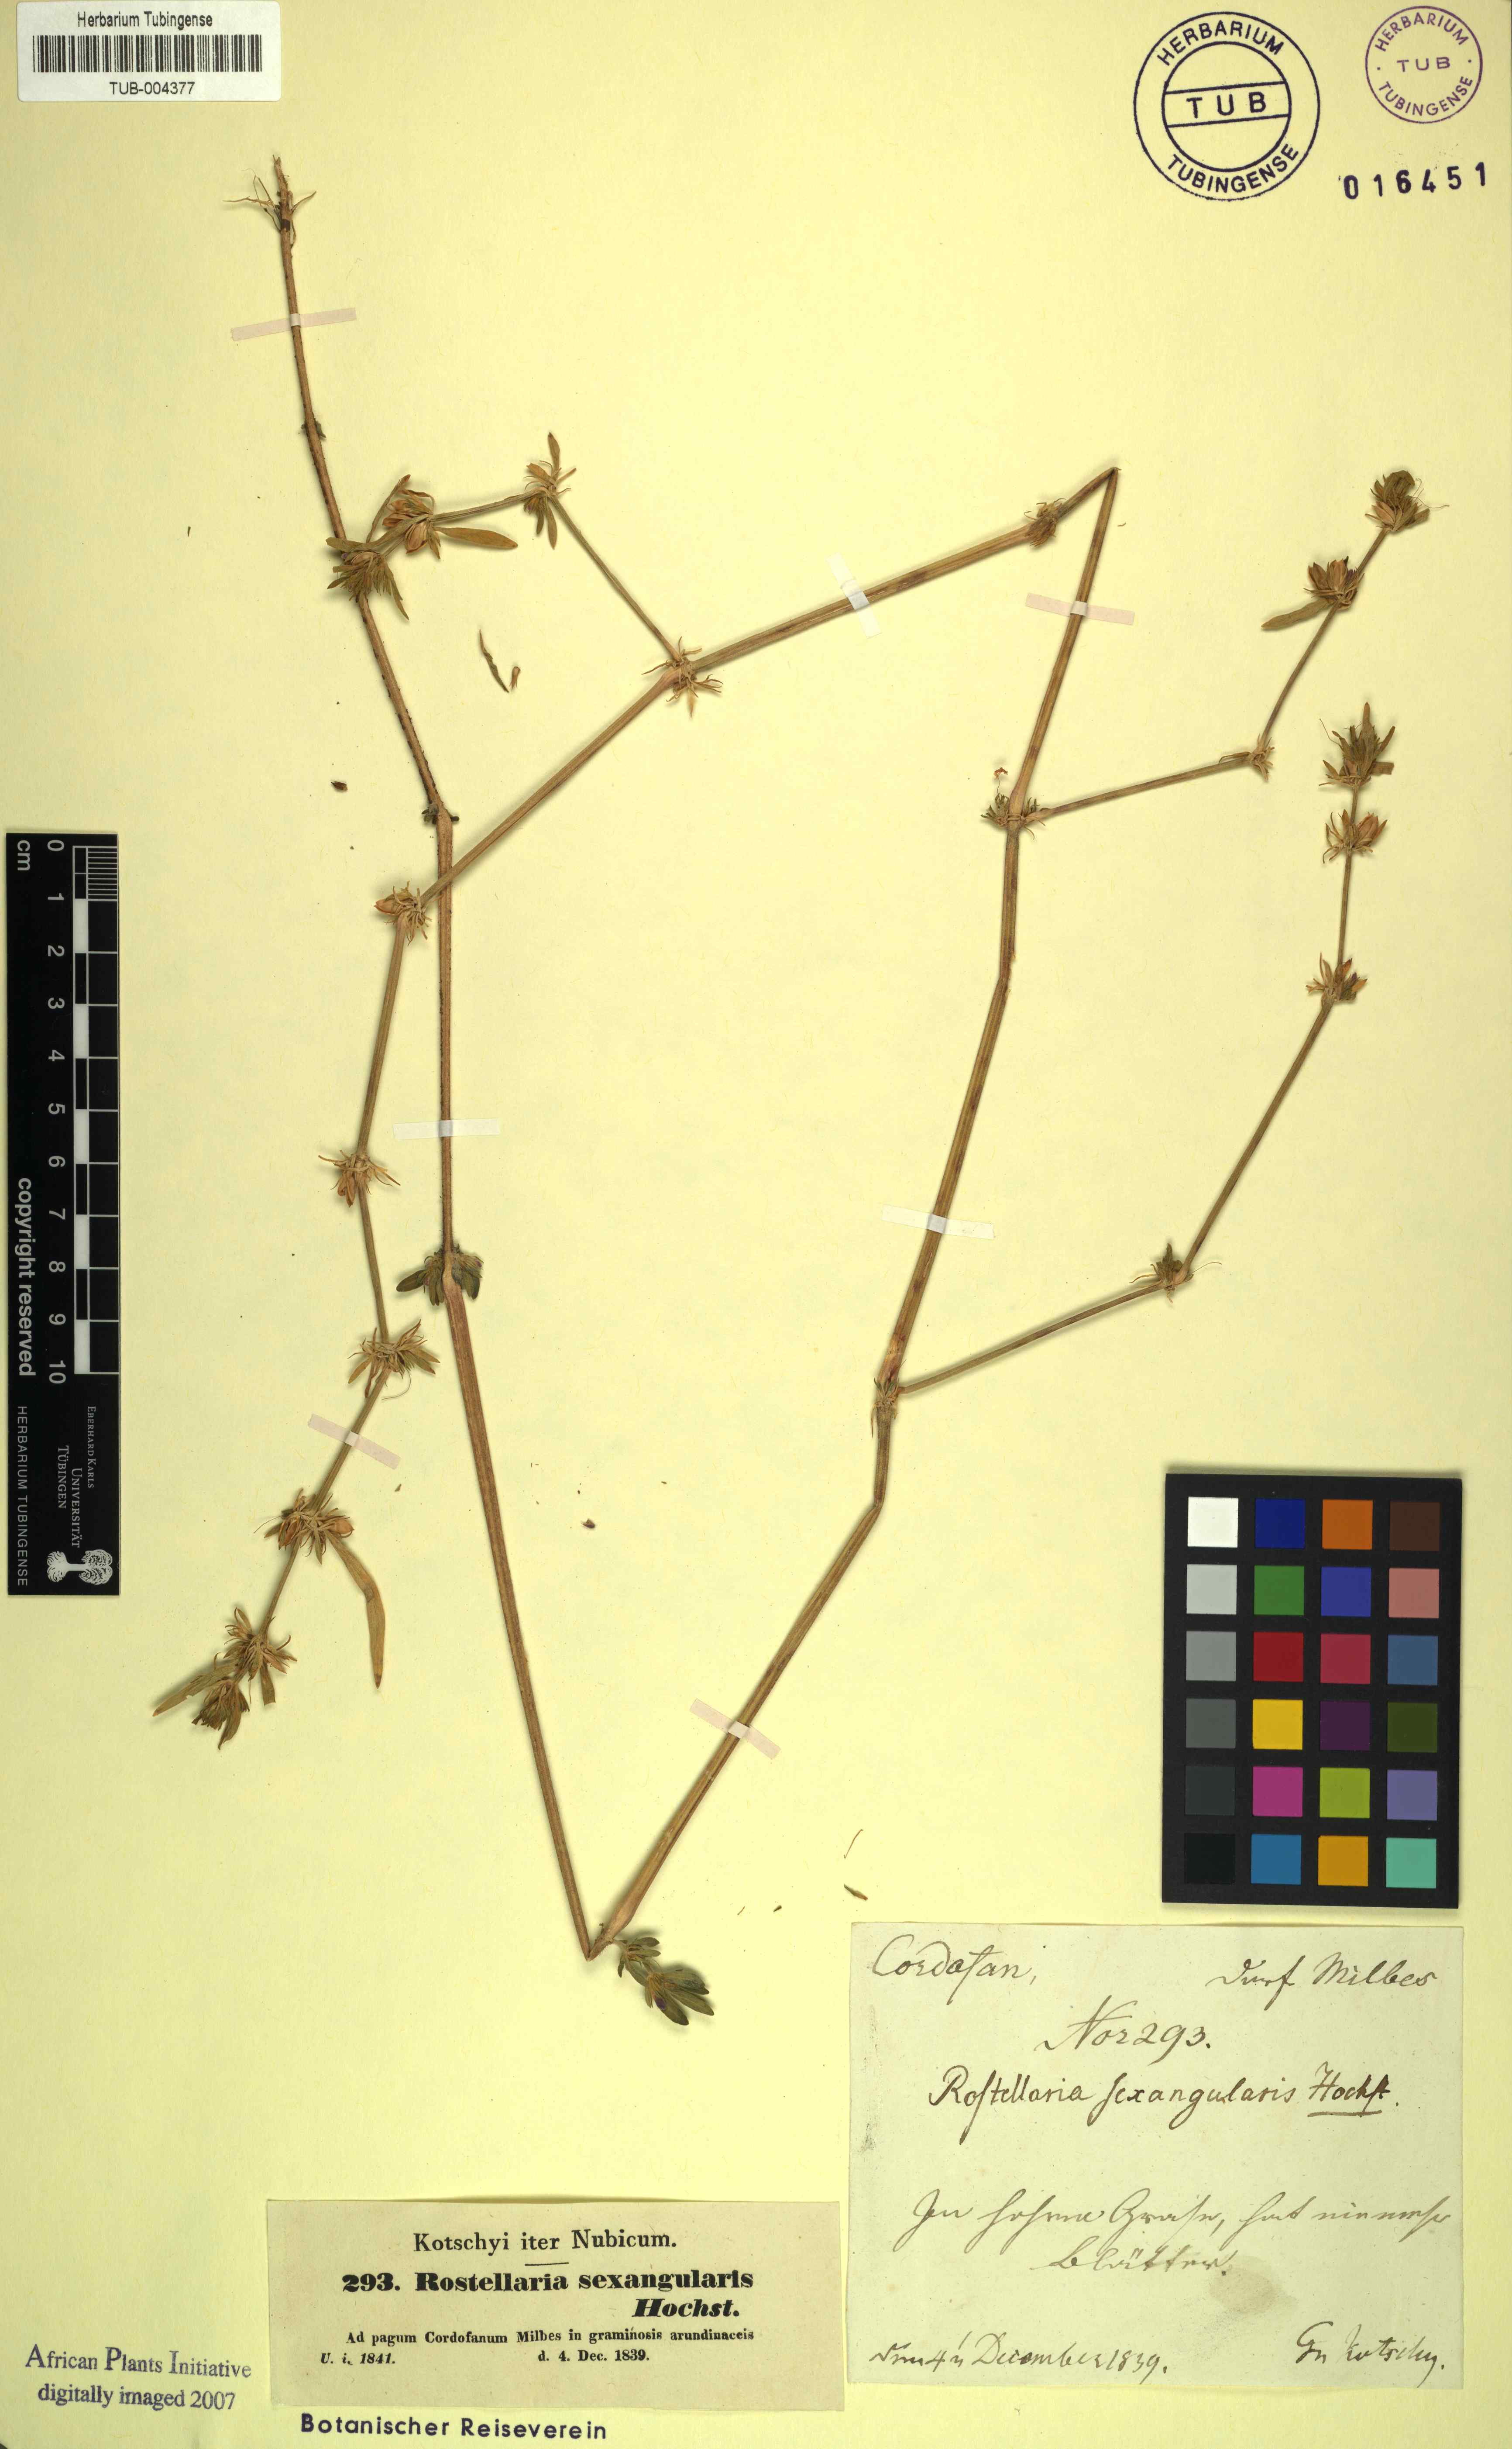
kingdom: Plantae
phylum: Tracheophyta
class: Magnoliopsida
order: Lamiales
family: Acanthaceae
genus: Dicliptera
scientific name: Dicliptera sexangularis
